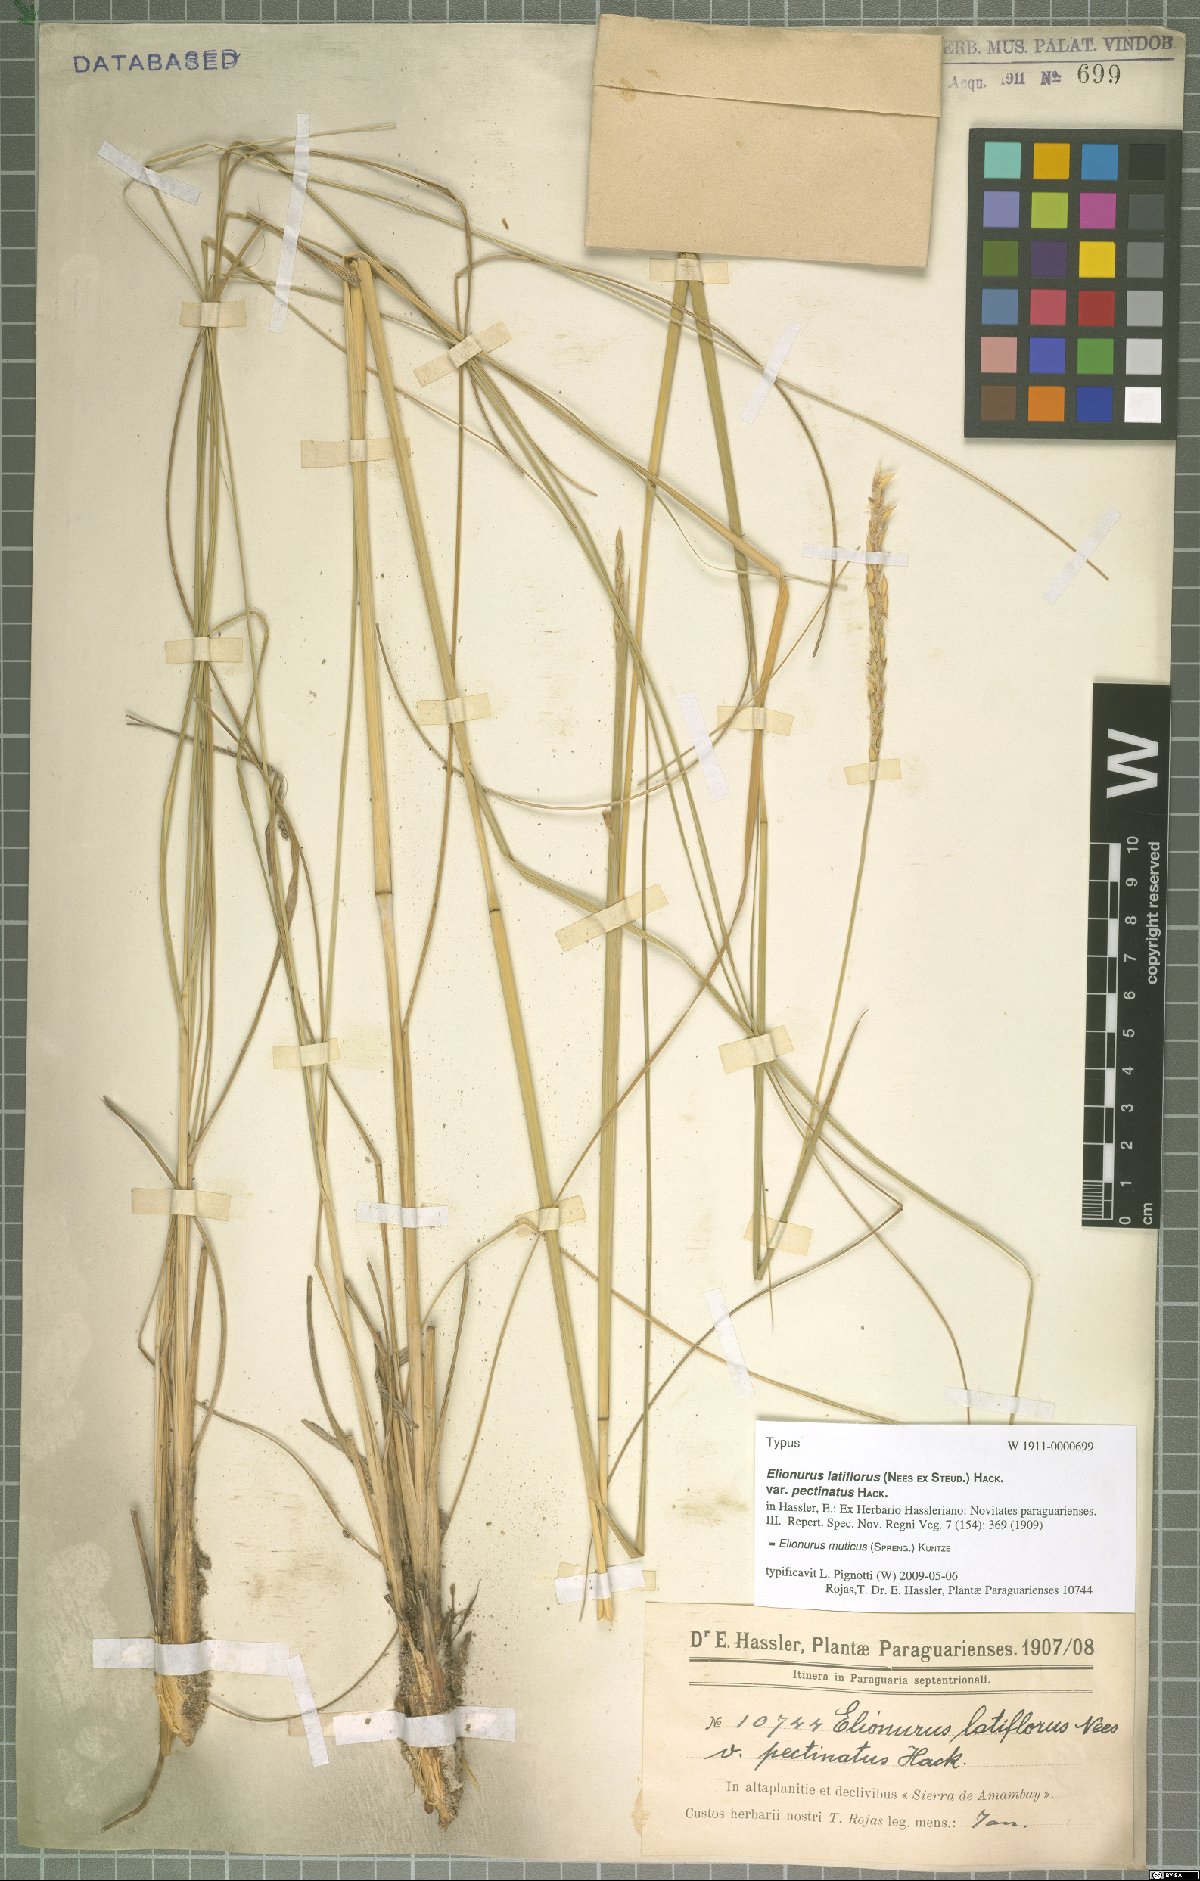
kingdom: Plantae
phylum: Tracheophyta
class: Liliopsida
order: Poales
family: Poaceae
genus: Elionurus
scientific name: Elionurus muticus
